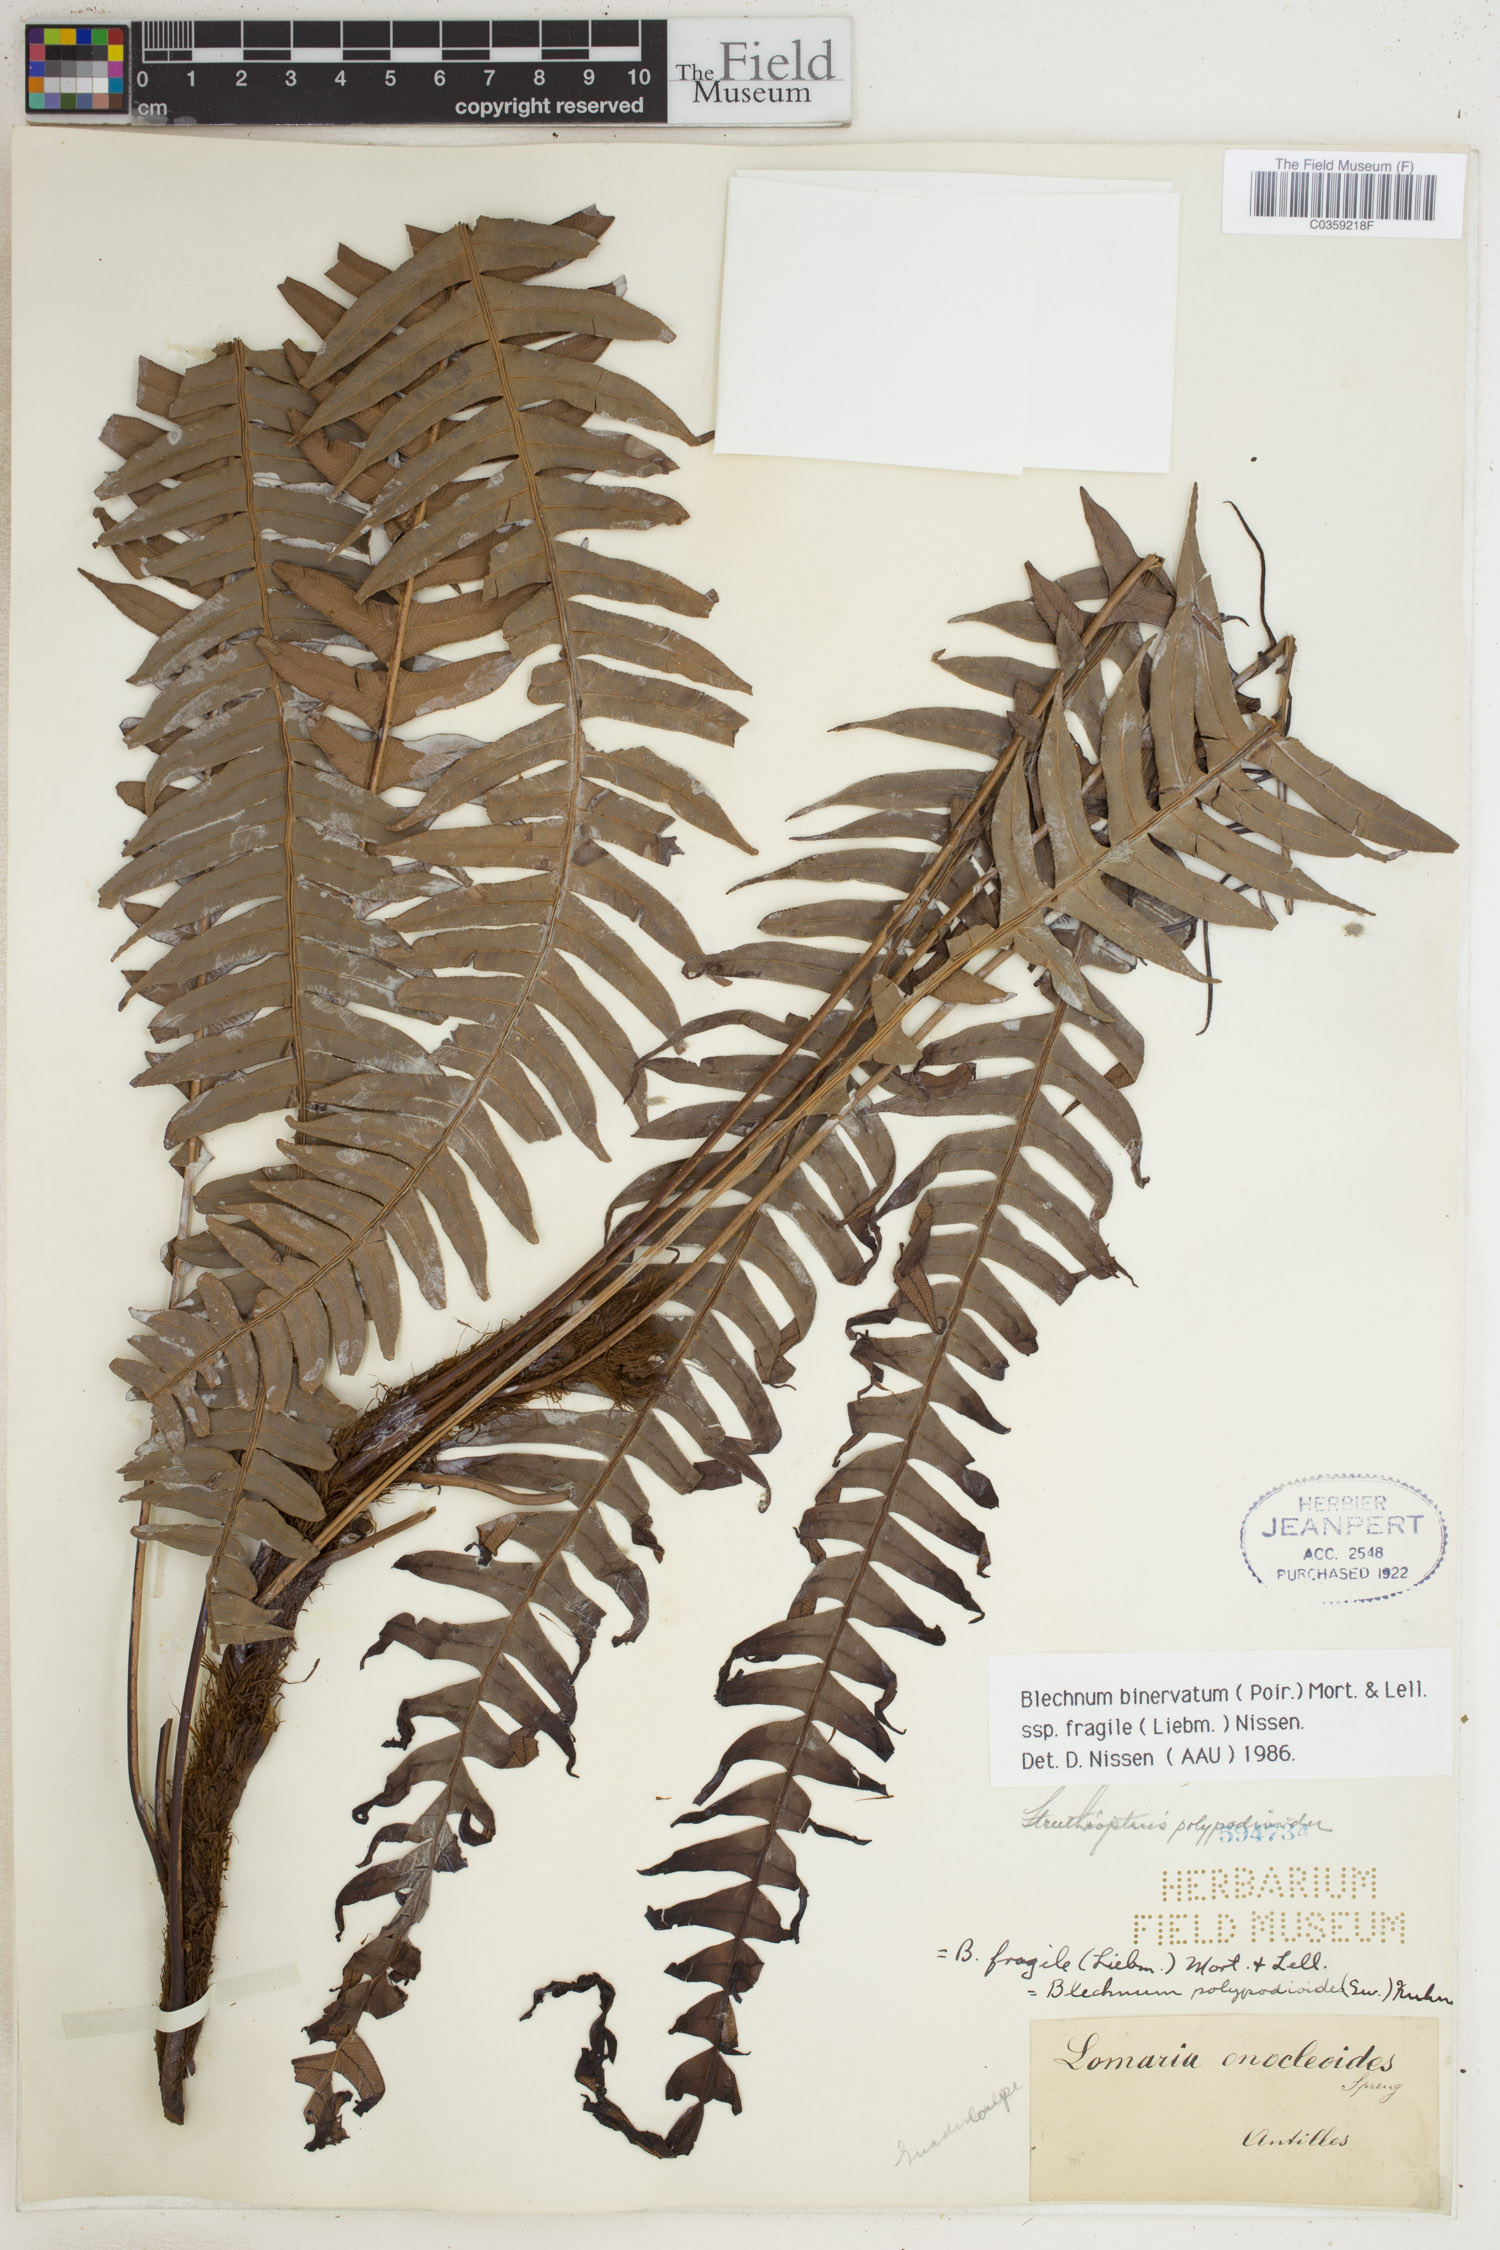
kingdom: Plantae
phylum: Tracheophyta
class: Polypodiopsida
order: Polypodiales
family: Blechnaceae
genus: Lomaridium
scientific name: Lomaridium binervatum
